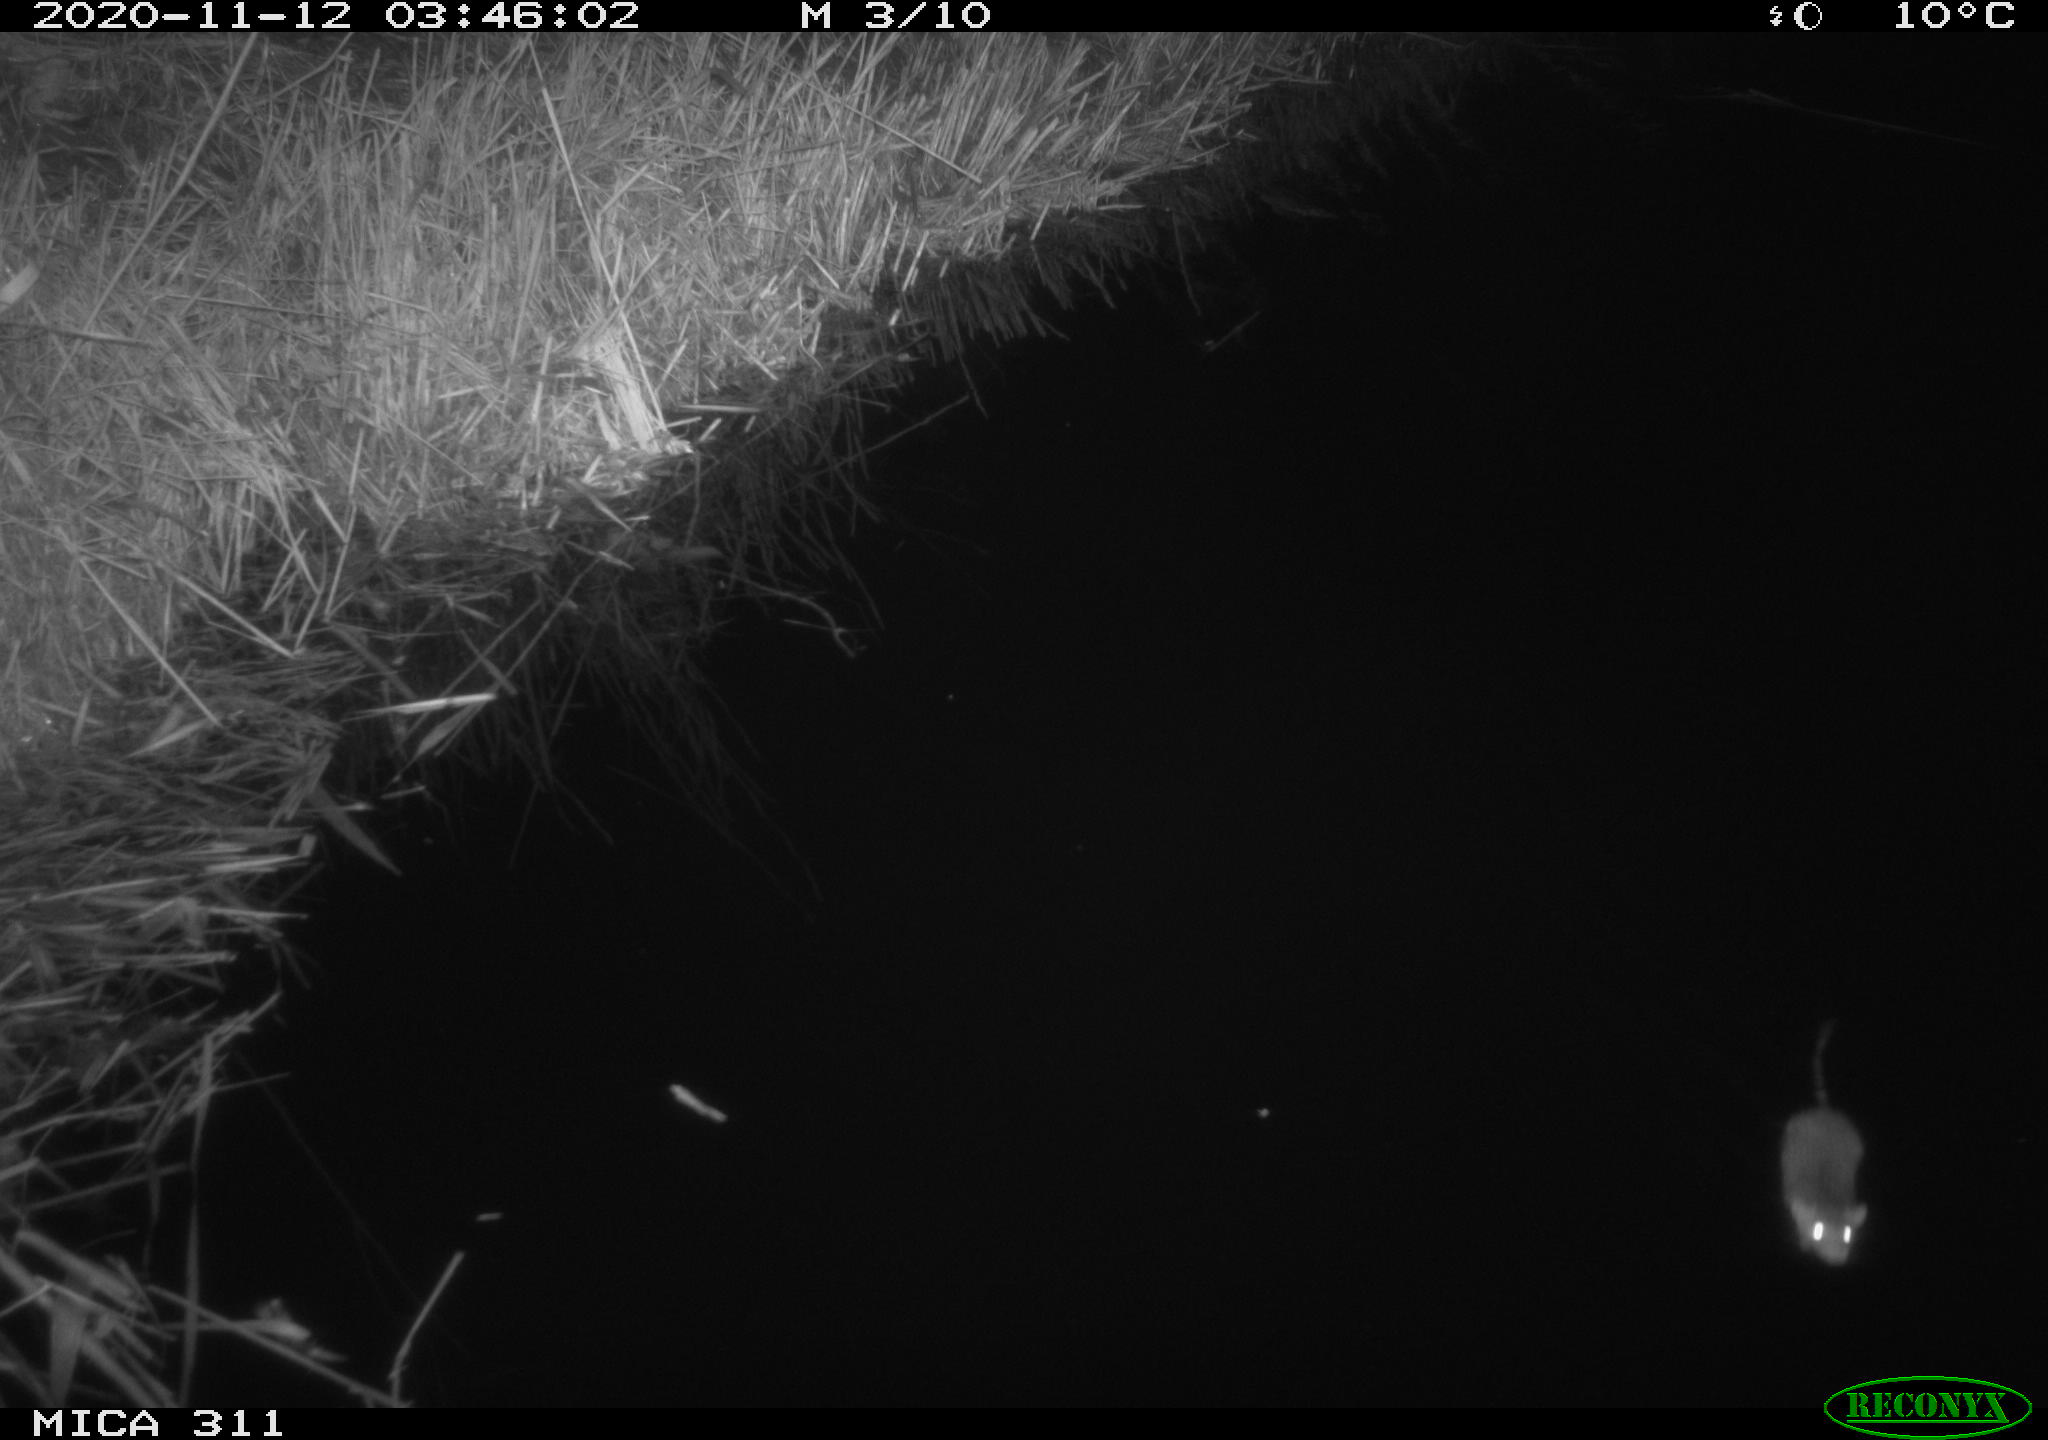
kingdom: Animalia
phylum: Chordata
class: Mammalia
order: Rodentia
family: Muridae
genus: Rattus
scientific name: Rattus norvegicus
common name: Brown rat
